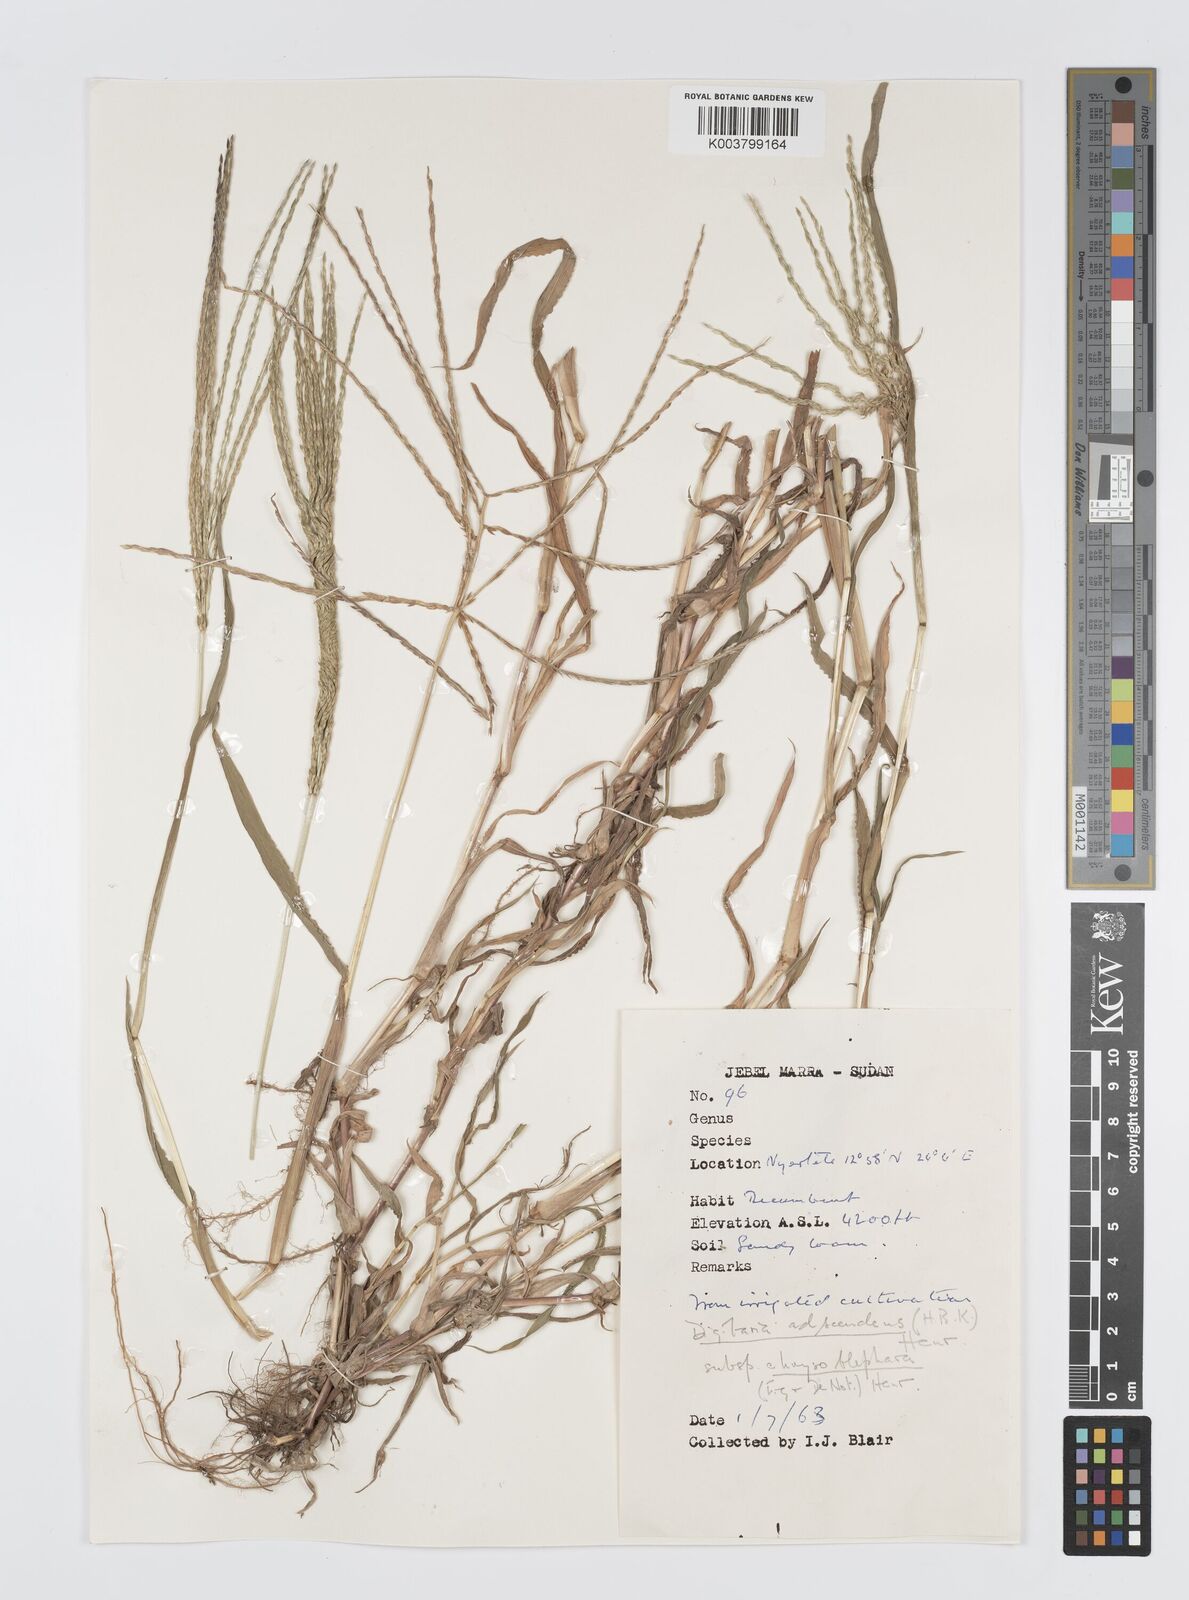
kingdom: Plantae
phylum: Tracheophyta
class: Liliopsida
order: Poales
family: Poaceae
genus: Digitaria
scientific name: Digitaria acuminatissima
